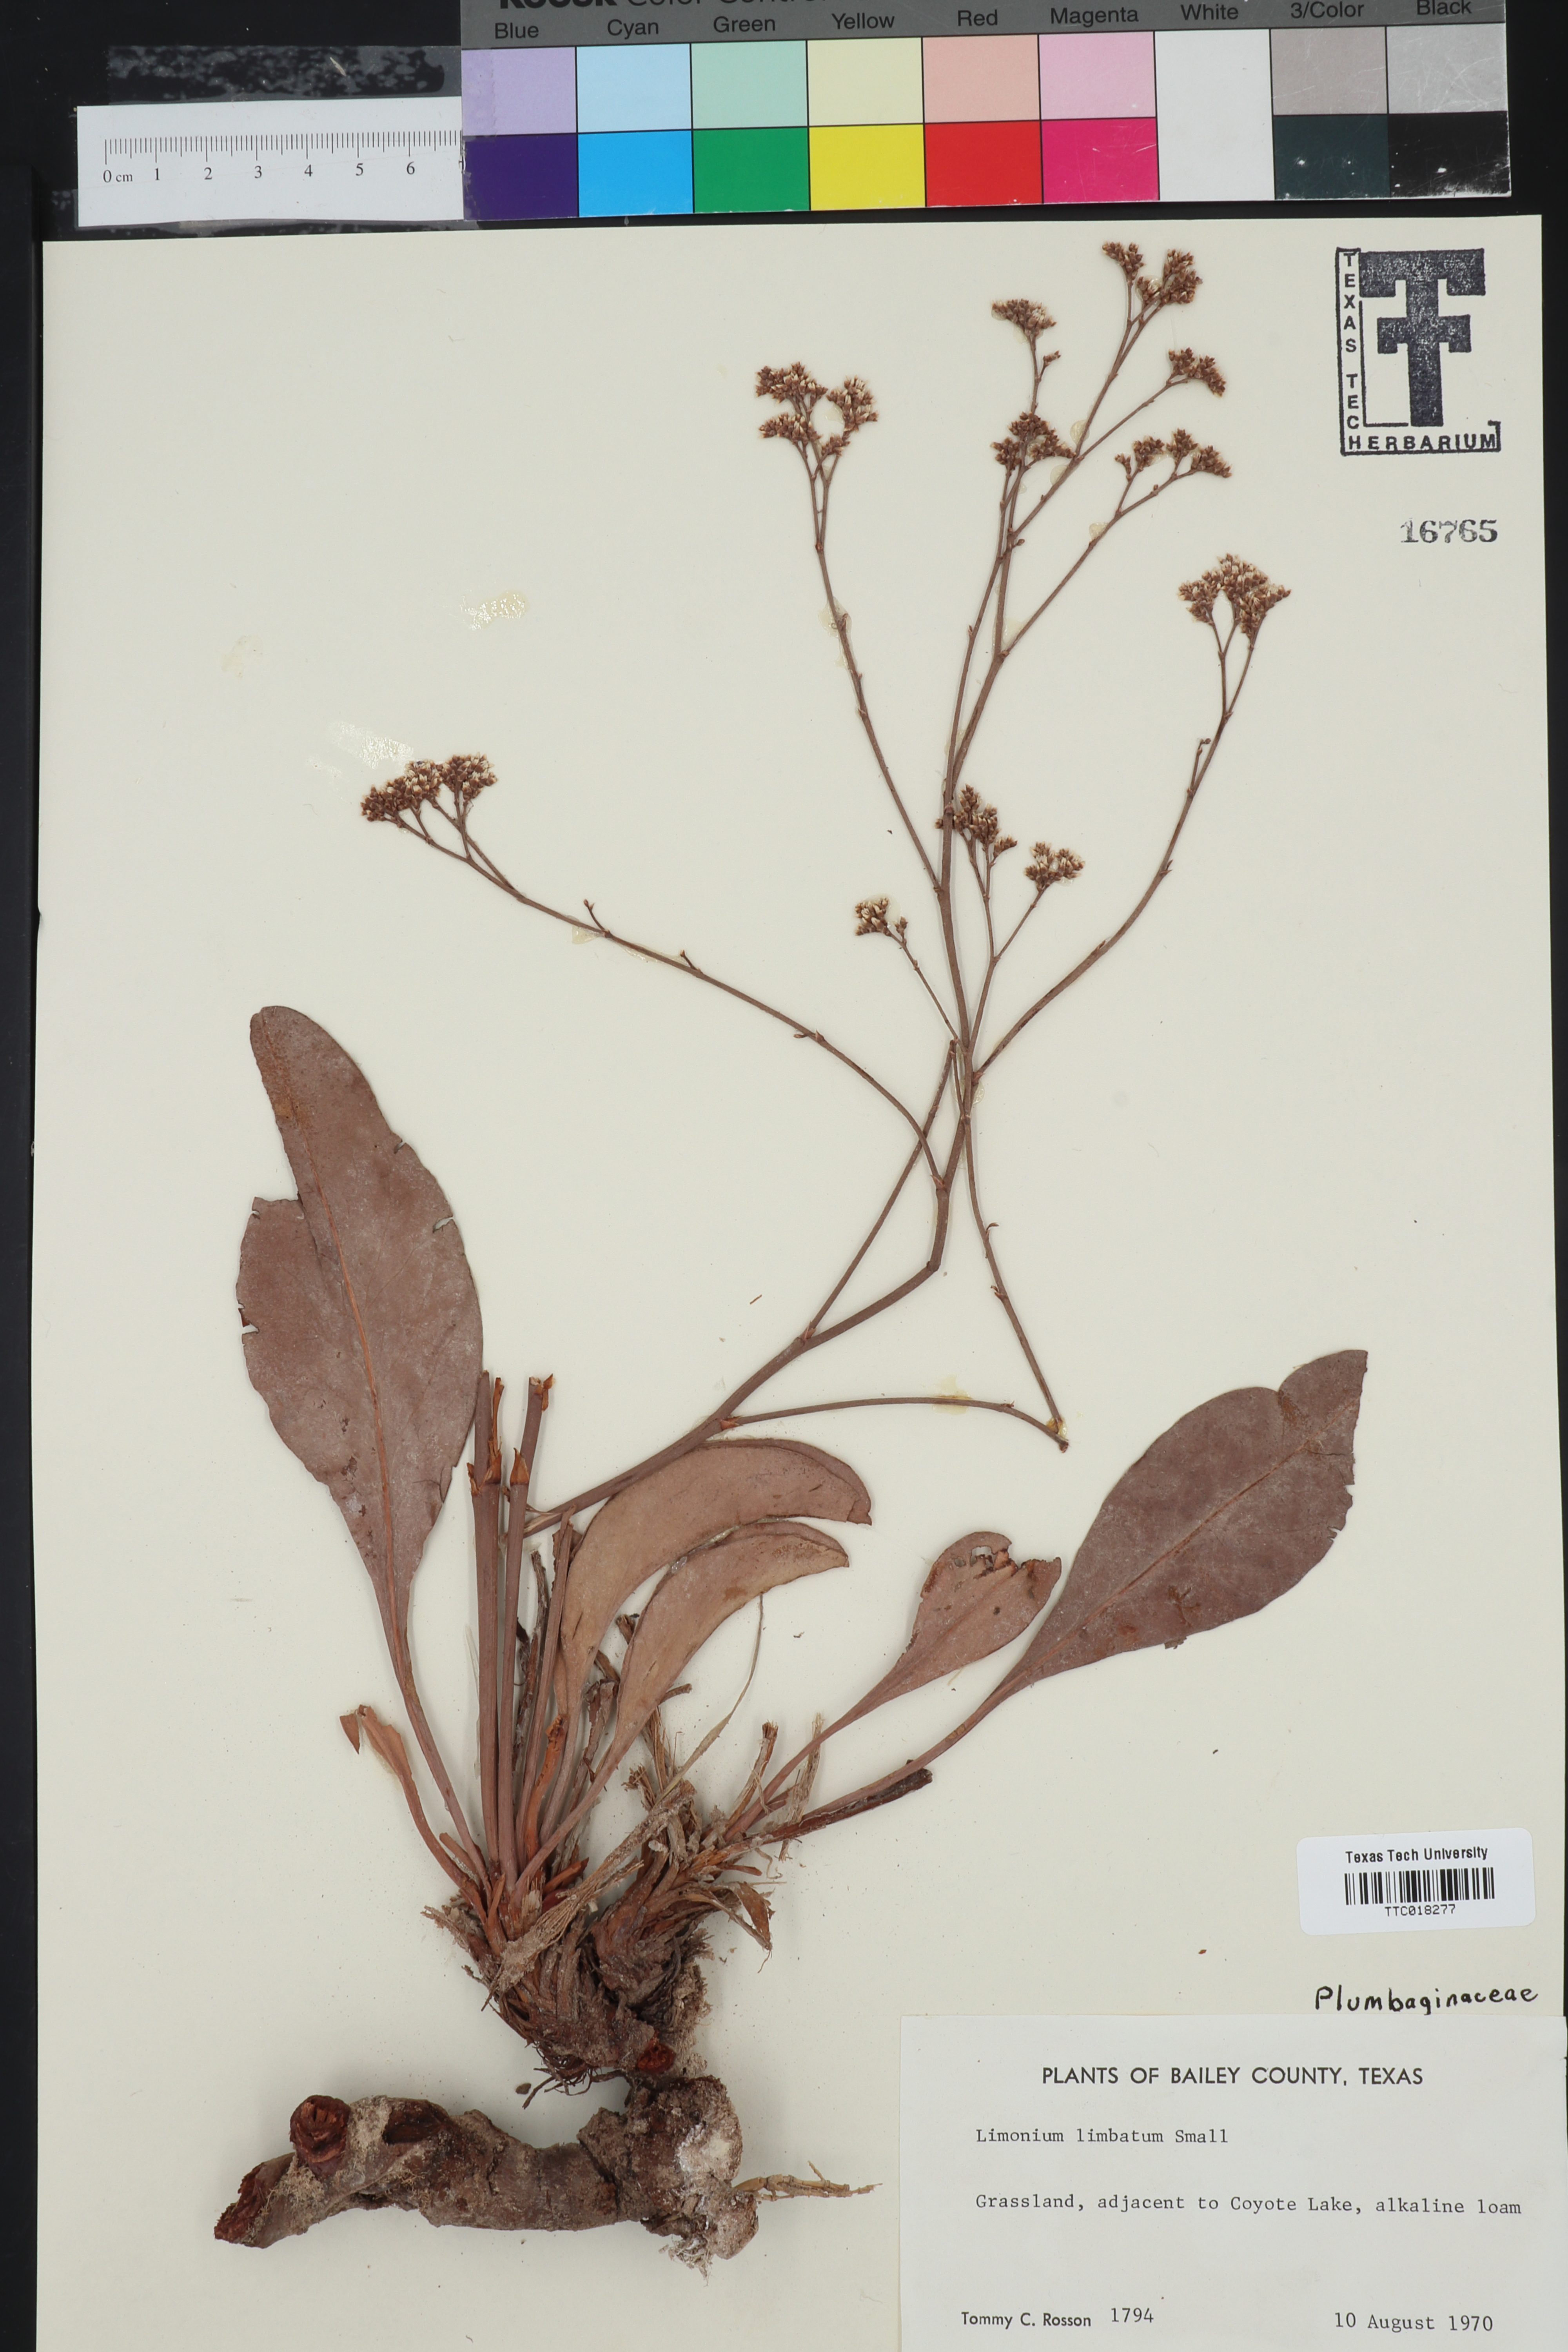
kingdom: Plantae
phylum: Tracheophyta
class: Magnoliopsida
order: Caryophyllales
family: Plumbaginaceae
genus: Limonium
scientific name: Limonium limbatum
